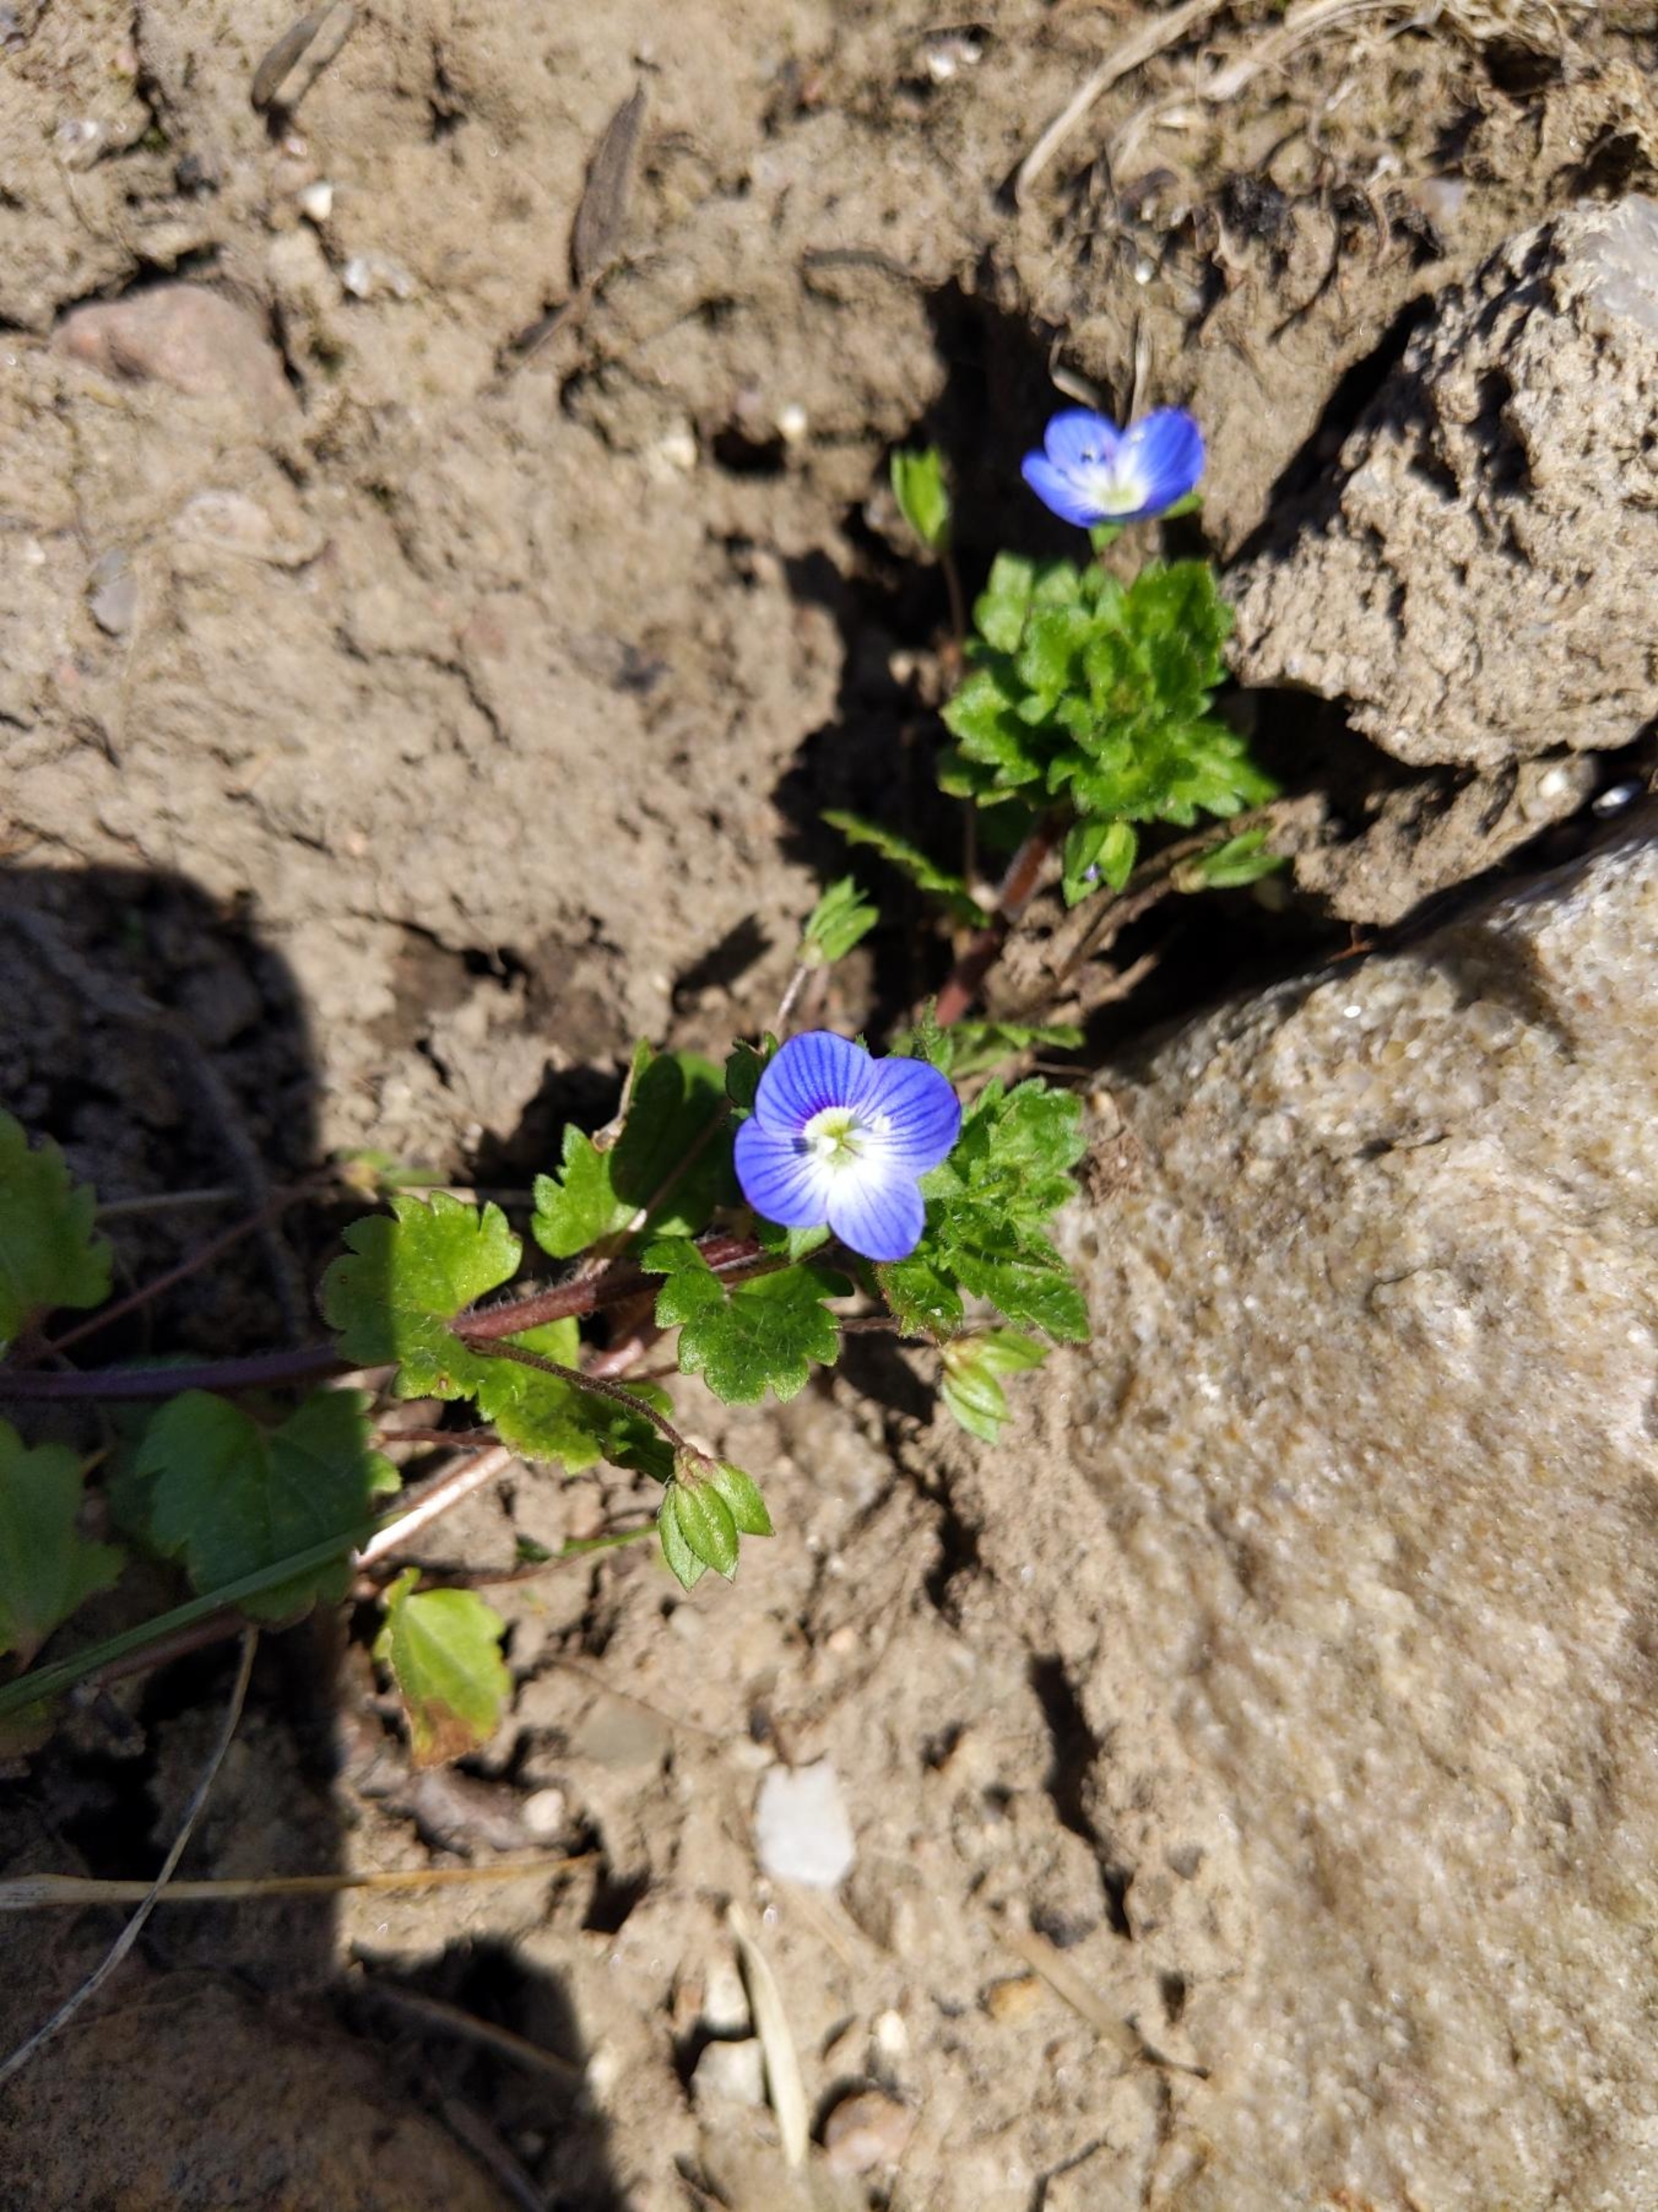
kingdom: Plantae
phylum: Tracheophyta
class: Magnoliopsida
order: Lamiales
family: Plantaginaceae
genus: Veronica
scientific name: Veronica persica
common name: Storkronet ærenpris
